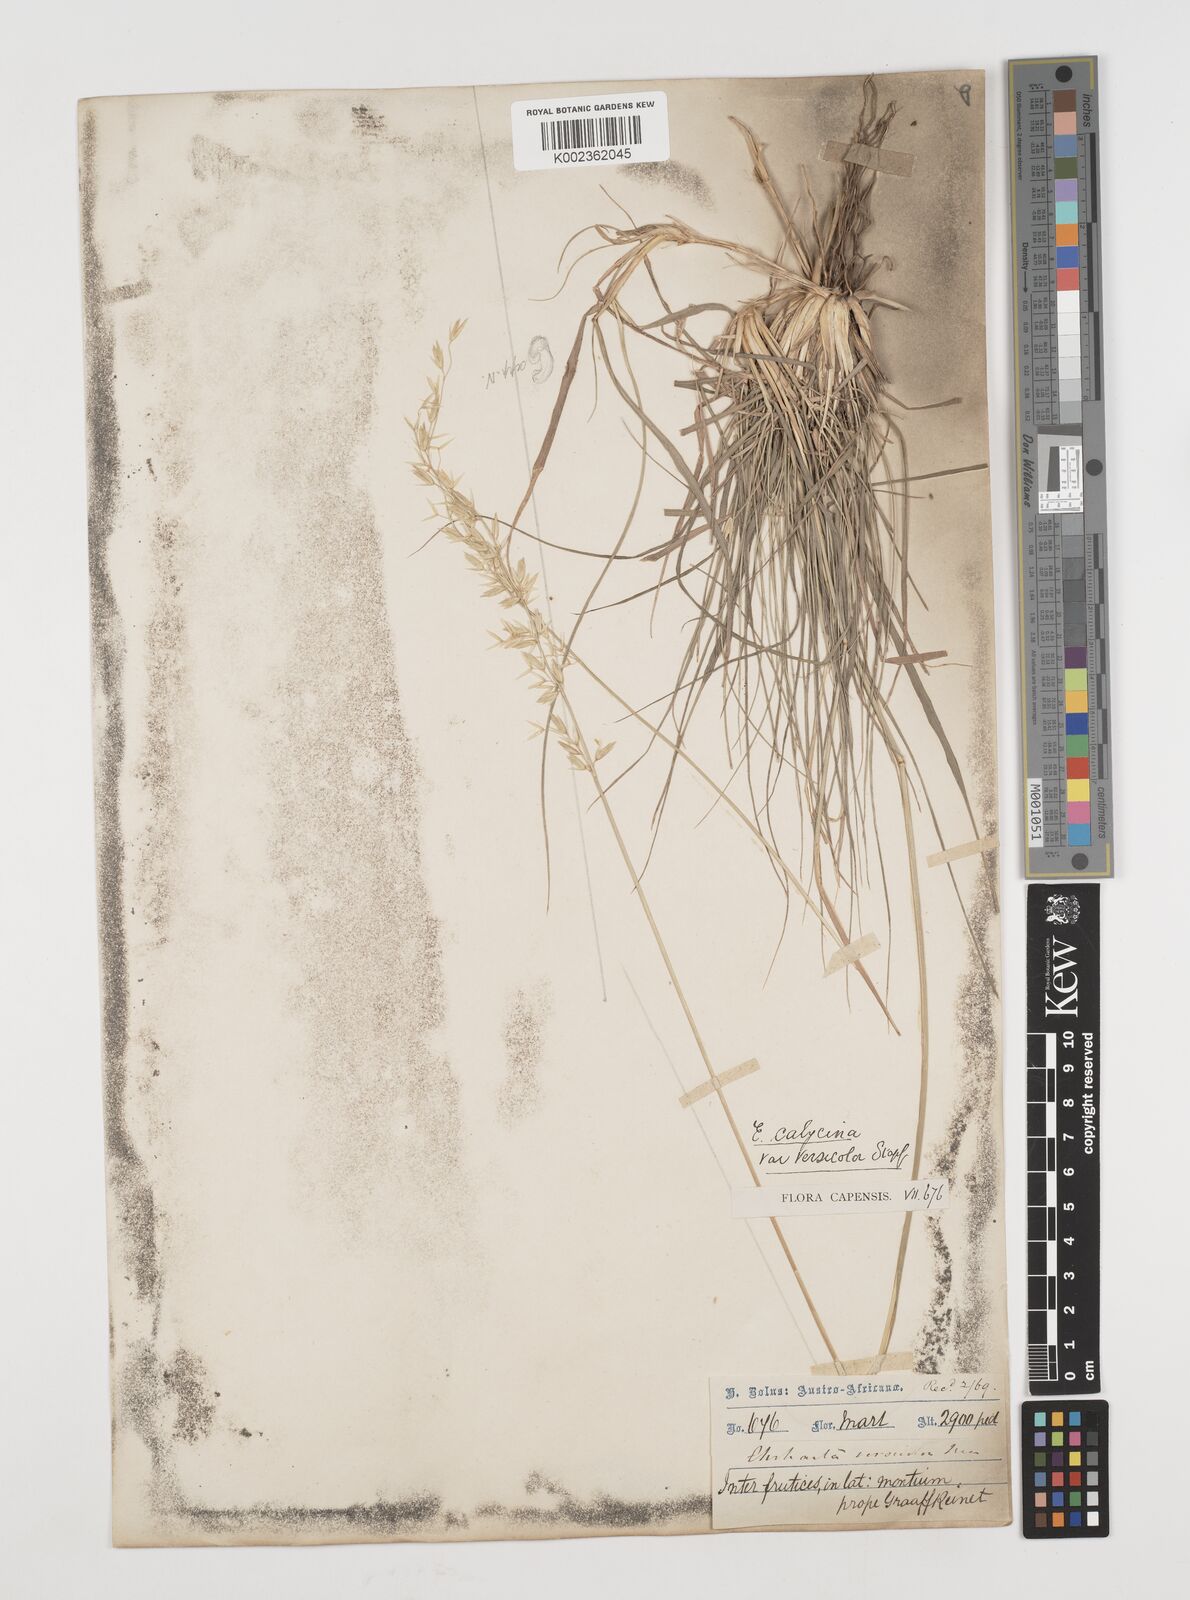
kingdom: Plantae
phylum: Tracheophyta
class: Liliopsida
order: Poales
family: Poaceae
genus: Ehrharta
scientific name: Ehrharta calycina
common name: Perennial veldtgrass
